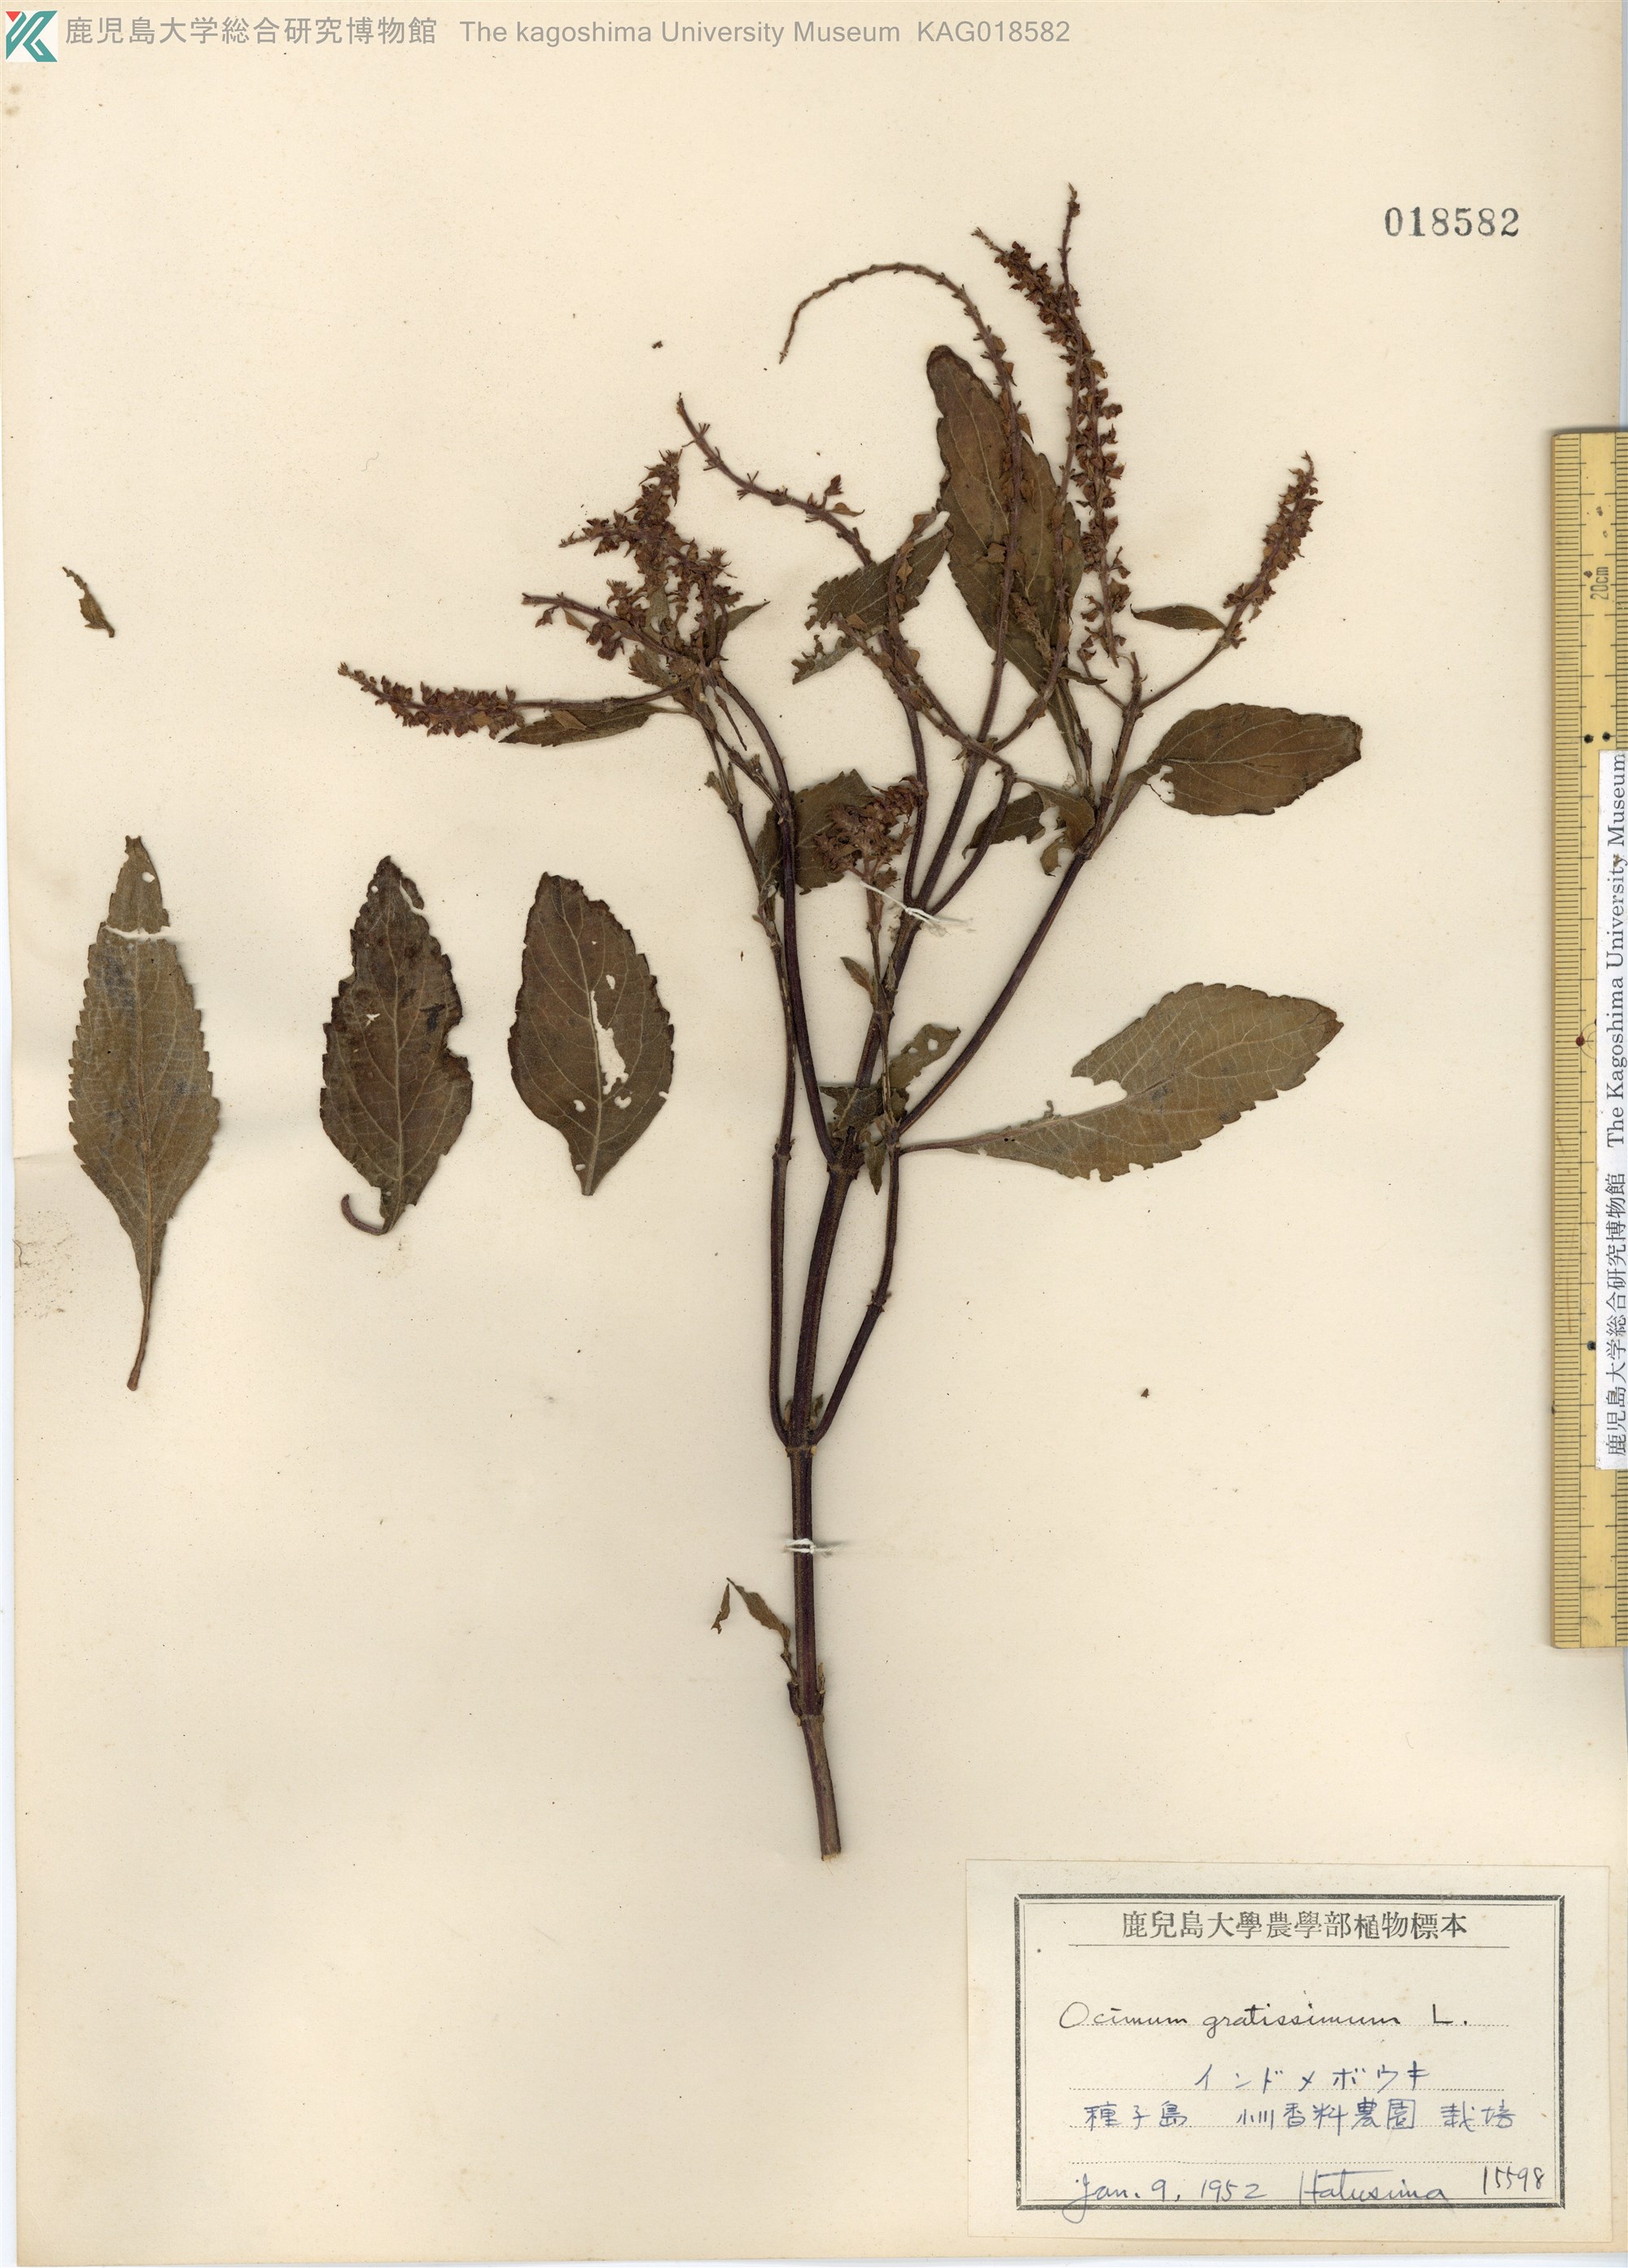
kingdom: Plantae
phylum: Tracheophyta
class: Magnoliopsida
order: Lamiales
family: Lamiaceae
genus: Ocimum
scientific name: Ocimum gratissimum
